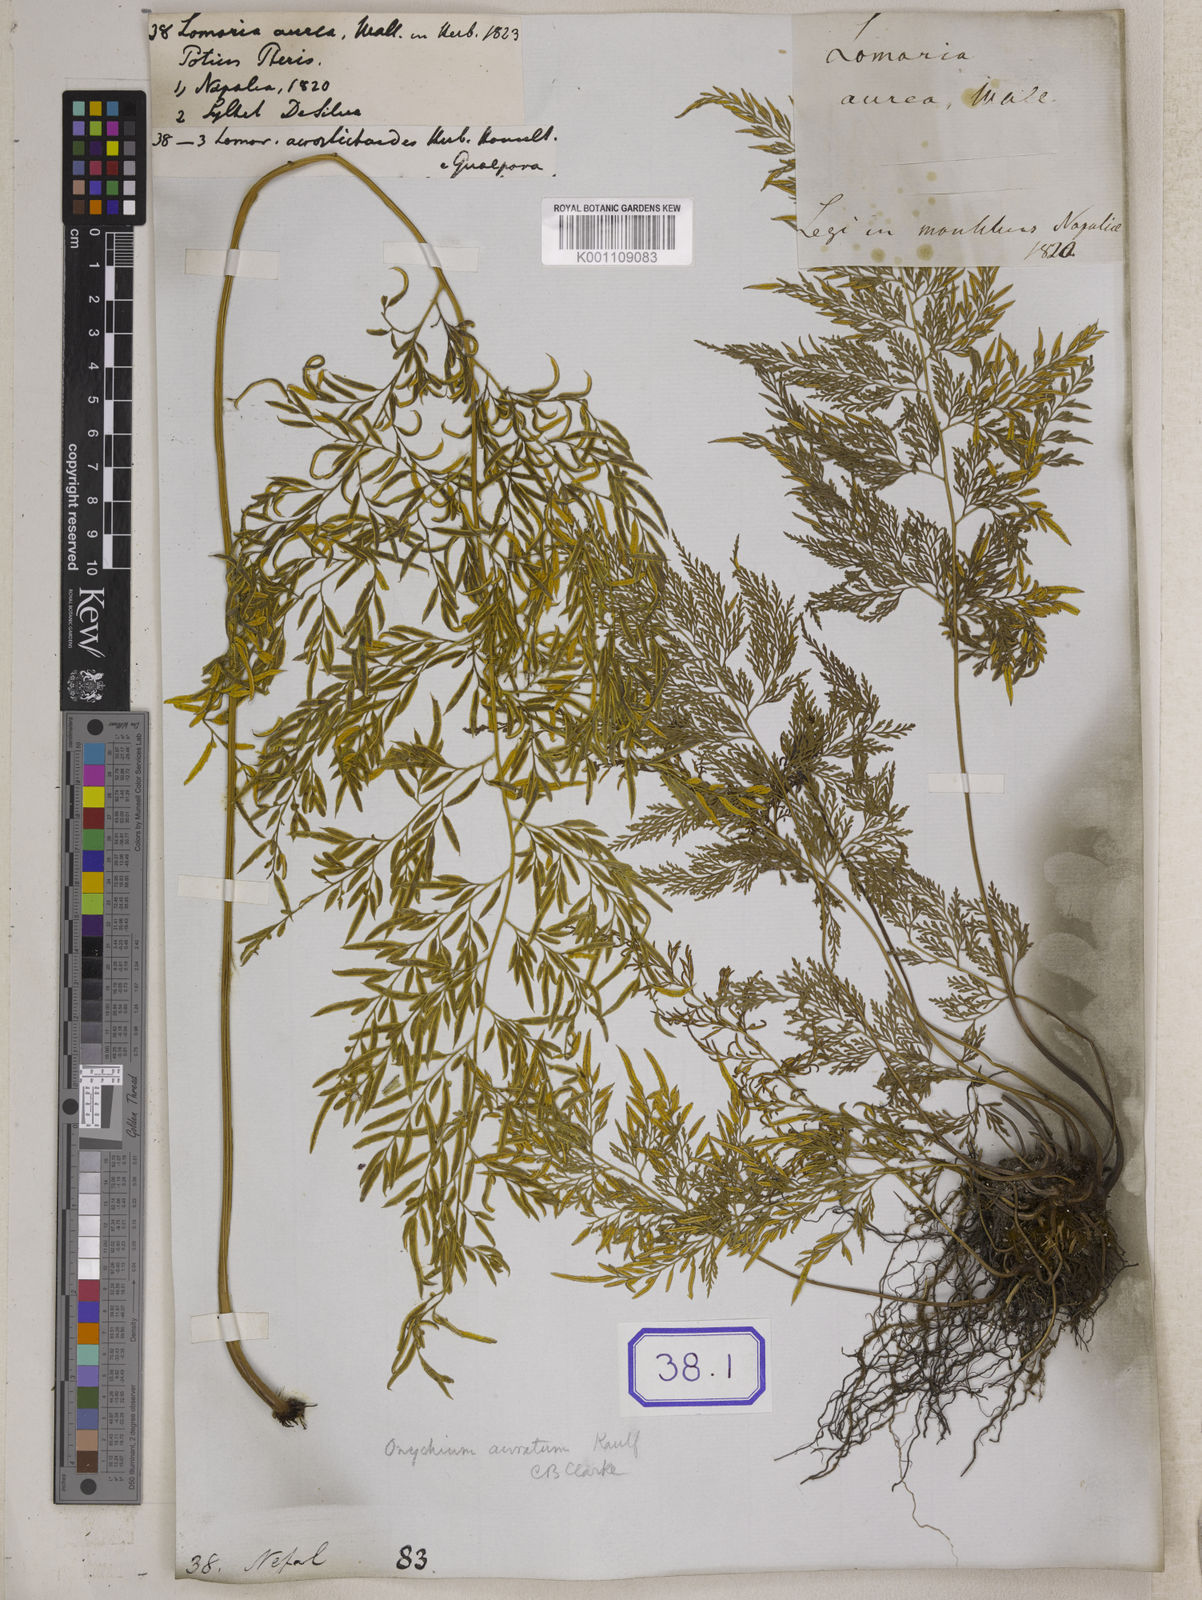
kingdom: Plantae
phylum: Tracheophyta
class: Polypodiopsida
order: Polypodiales
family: Pteridaceae
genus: Onychium
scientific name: Onychium siliculosum
